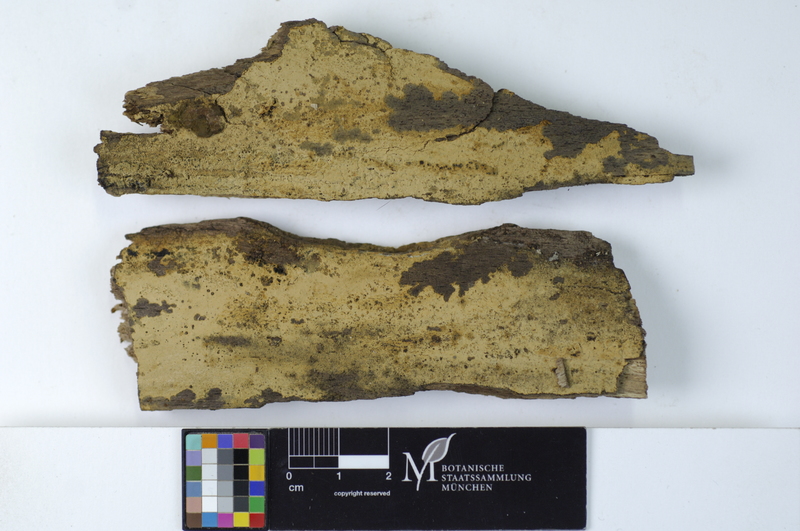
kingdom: Plantae
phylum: Tracheophyta
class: Magnoliopsida
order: Fagales
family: Fagaceae
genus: Fagus
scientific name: Fagus sylvatica
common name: Beech
